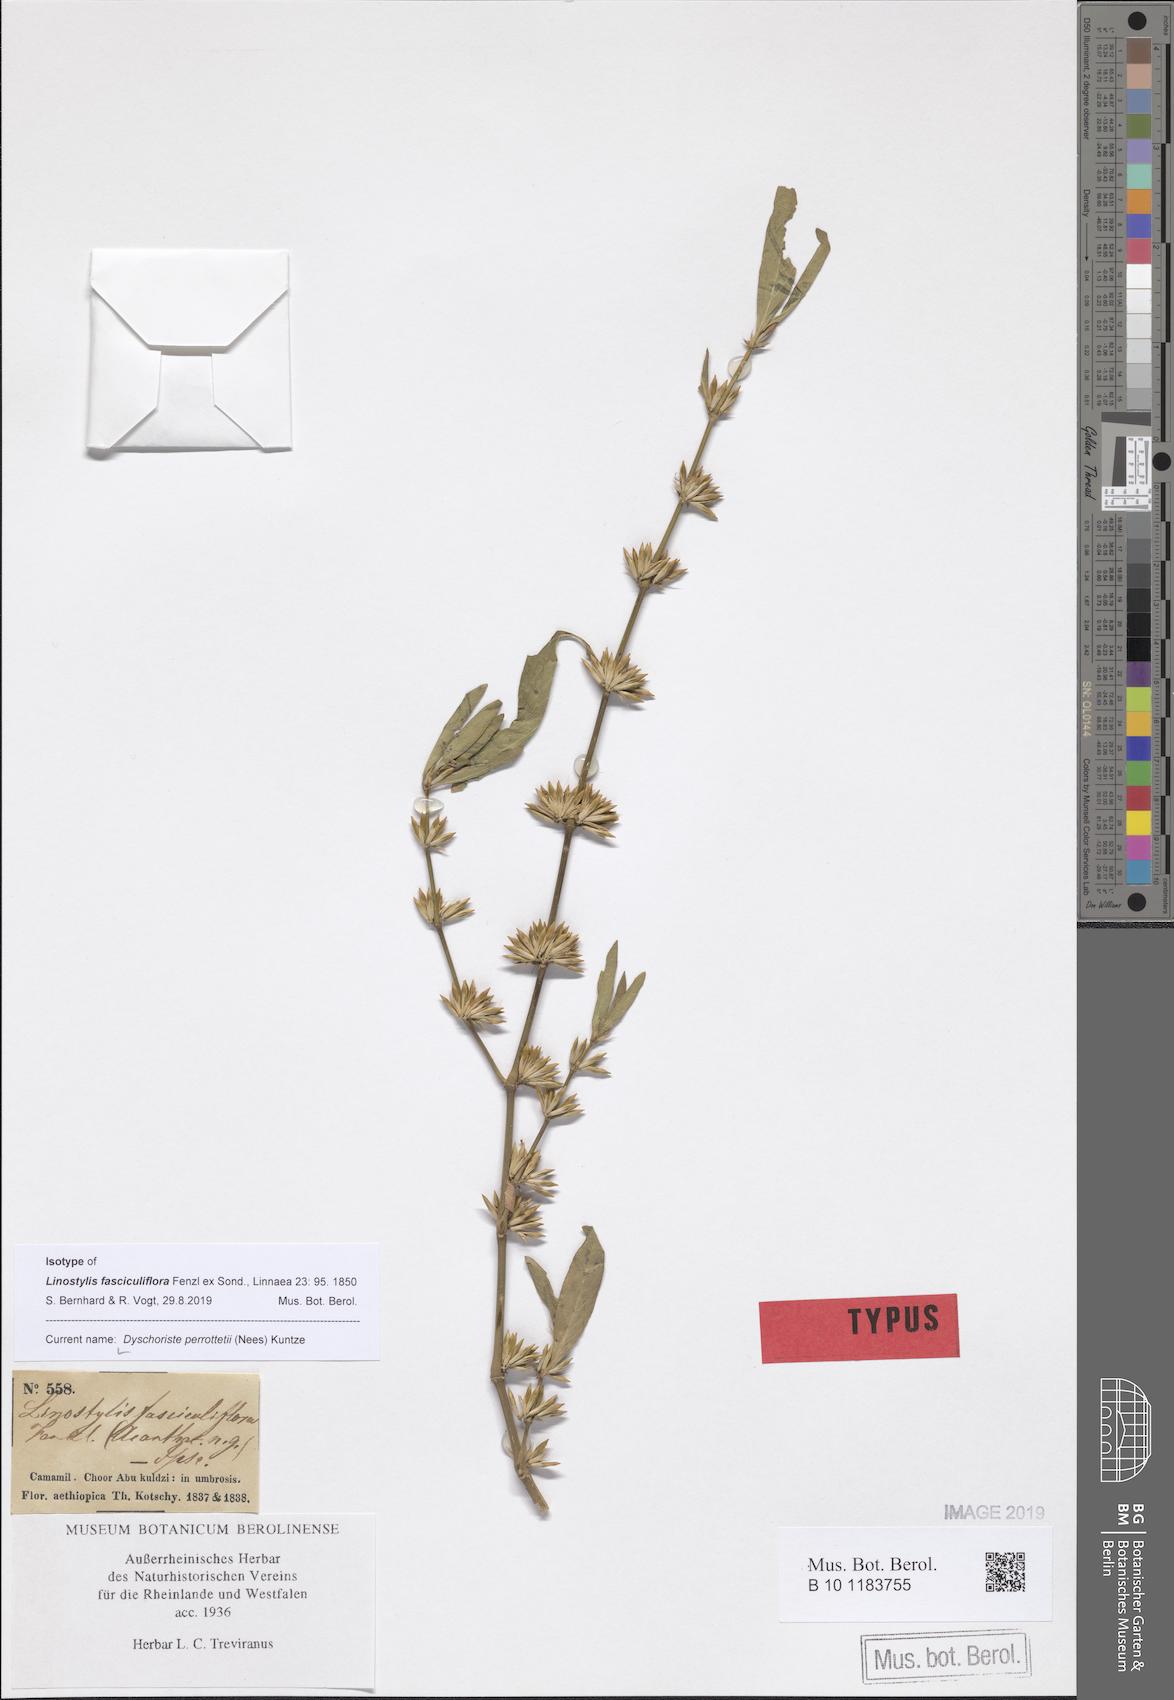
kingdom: Plantae
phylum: Tracheophyta
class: Magnoliopsida
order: Lamiales
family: Acanthaceae
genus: Dyschoriste
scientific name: Dyschoriste nagchana
